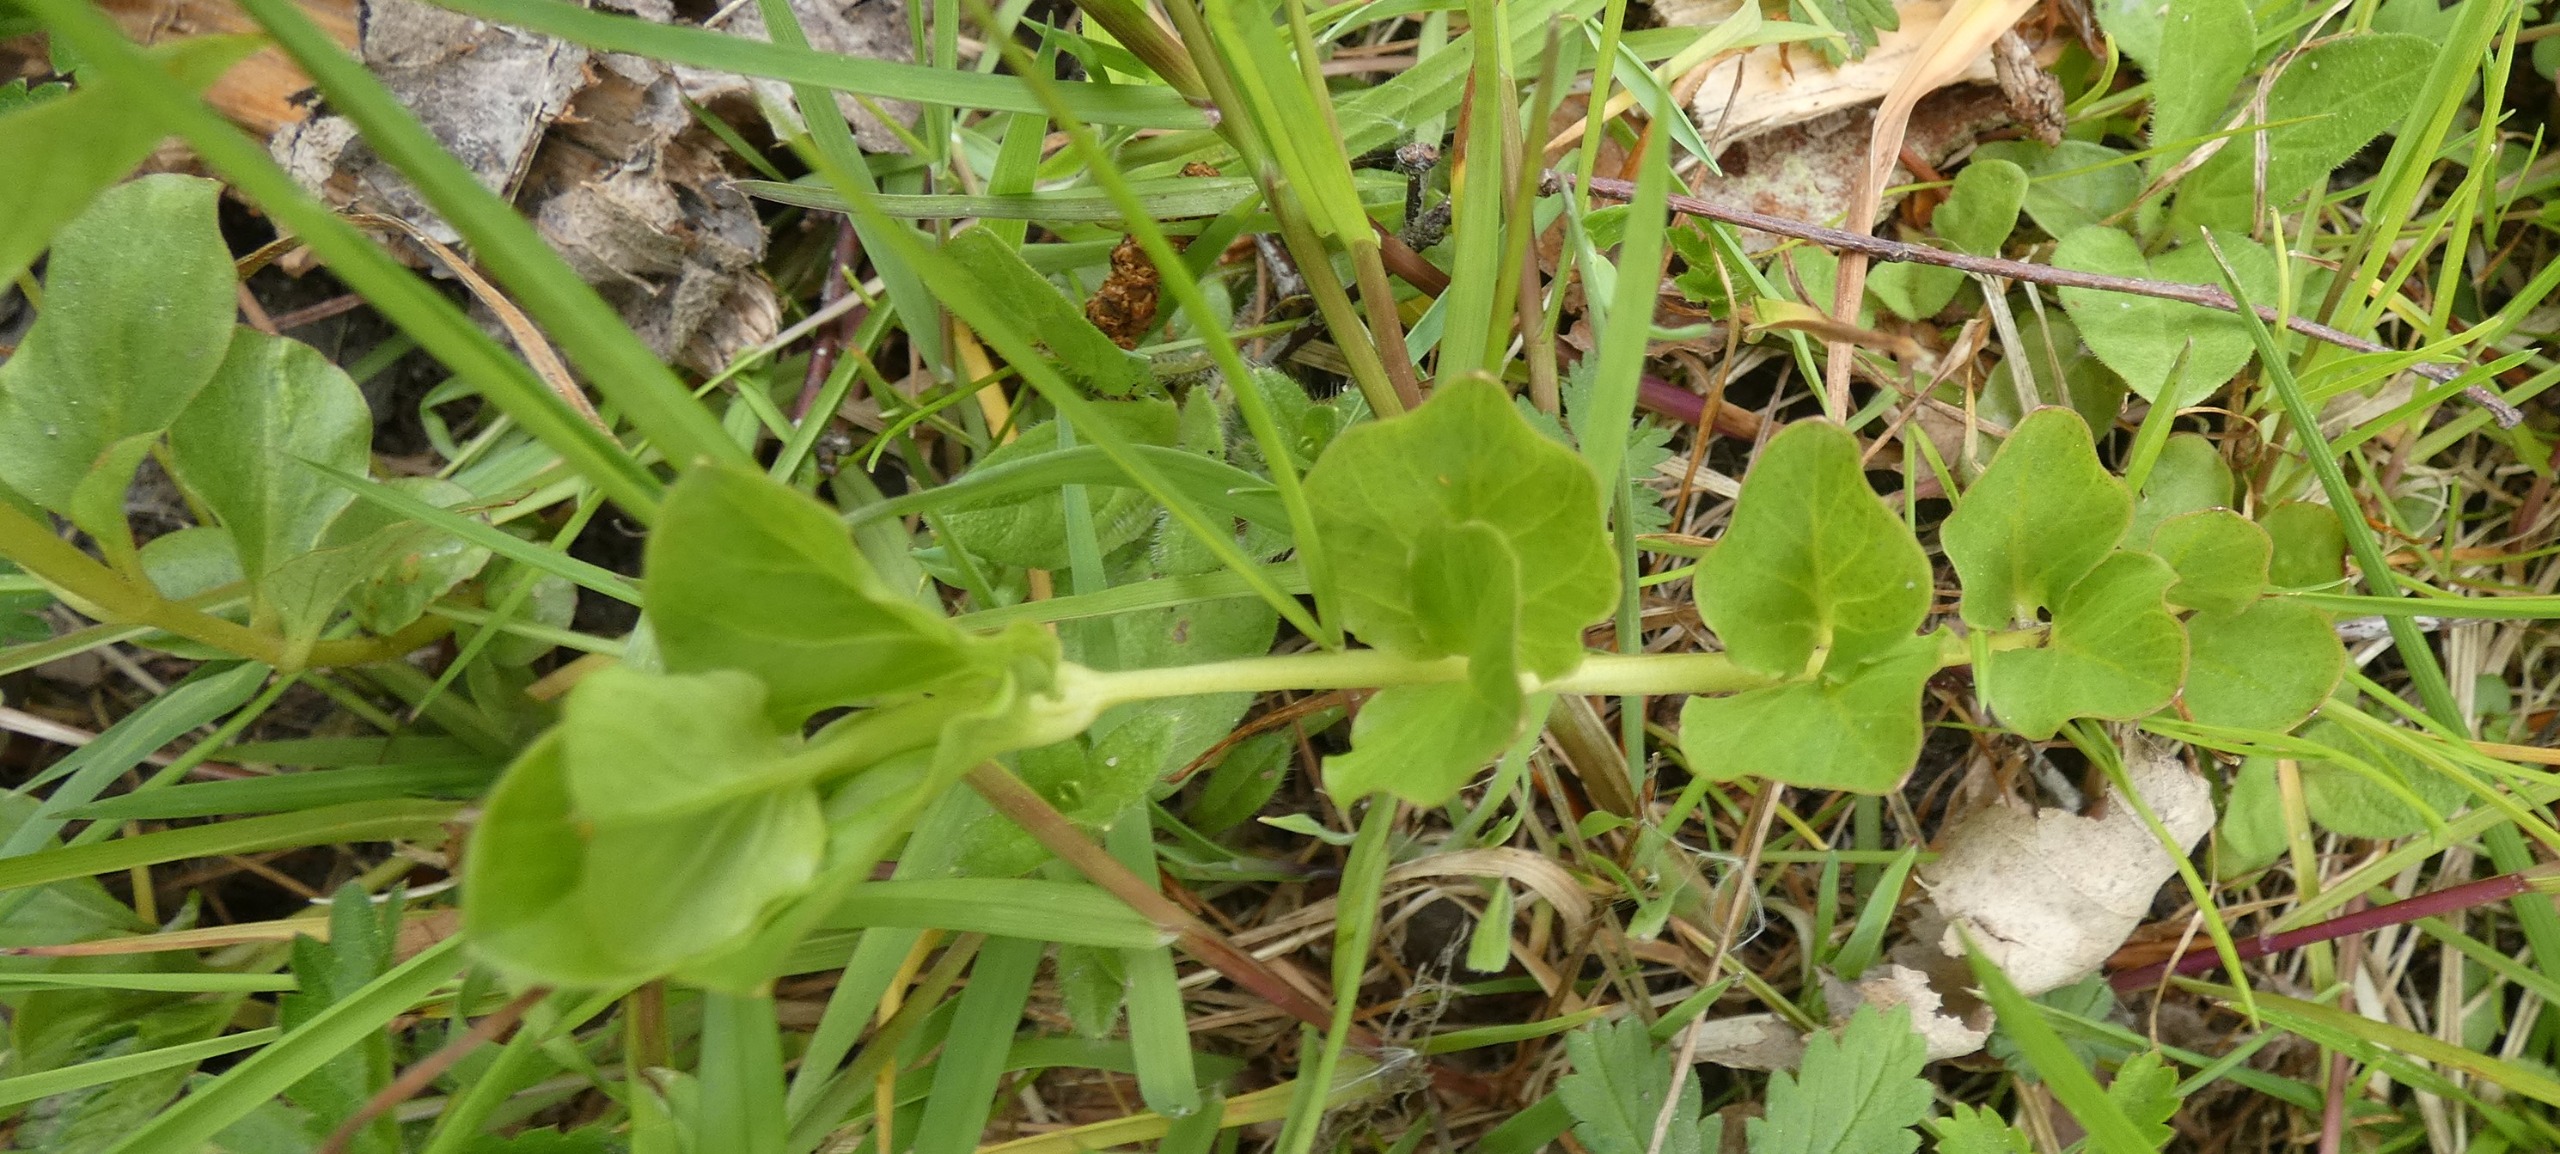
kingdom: Plantae
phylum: Tracheophyta
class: Magnoliopsida
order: Ericales
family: Primulaceae
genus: Lysimachia
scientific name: Lysimachia nummularia
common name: Pengebladet fredløs
